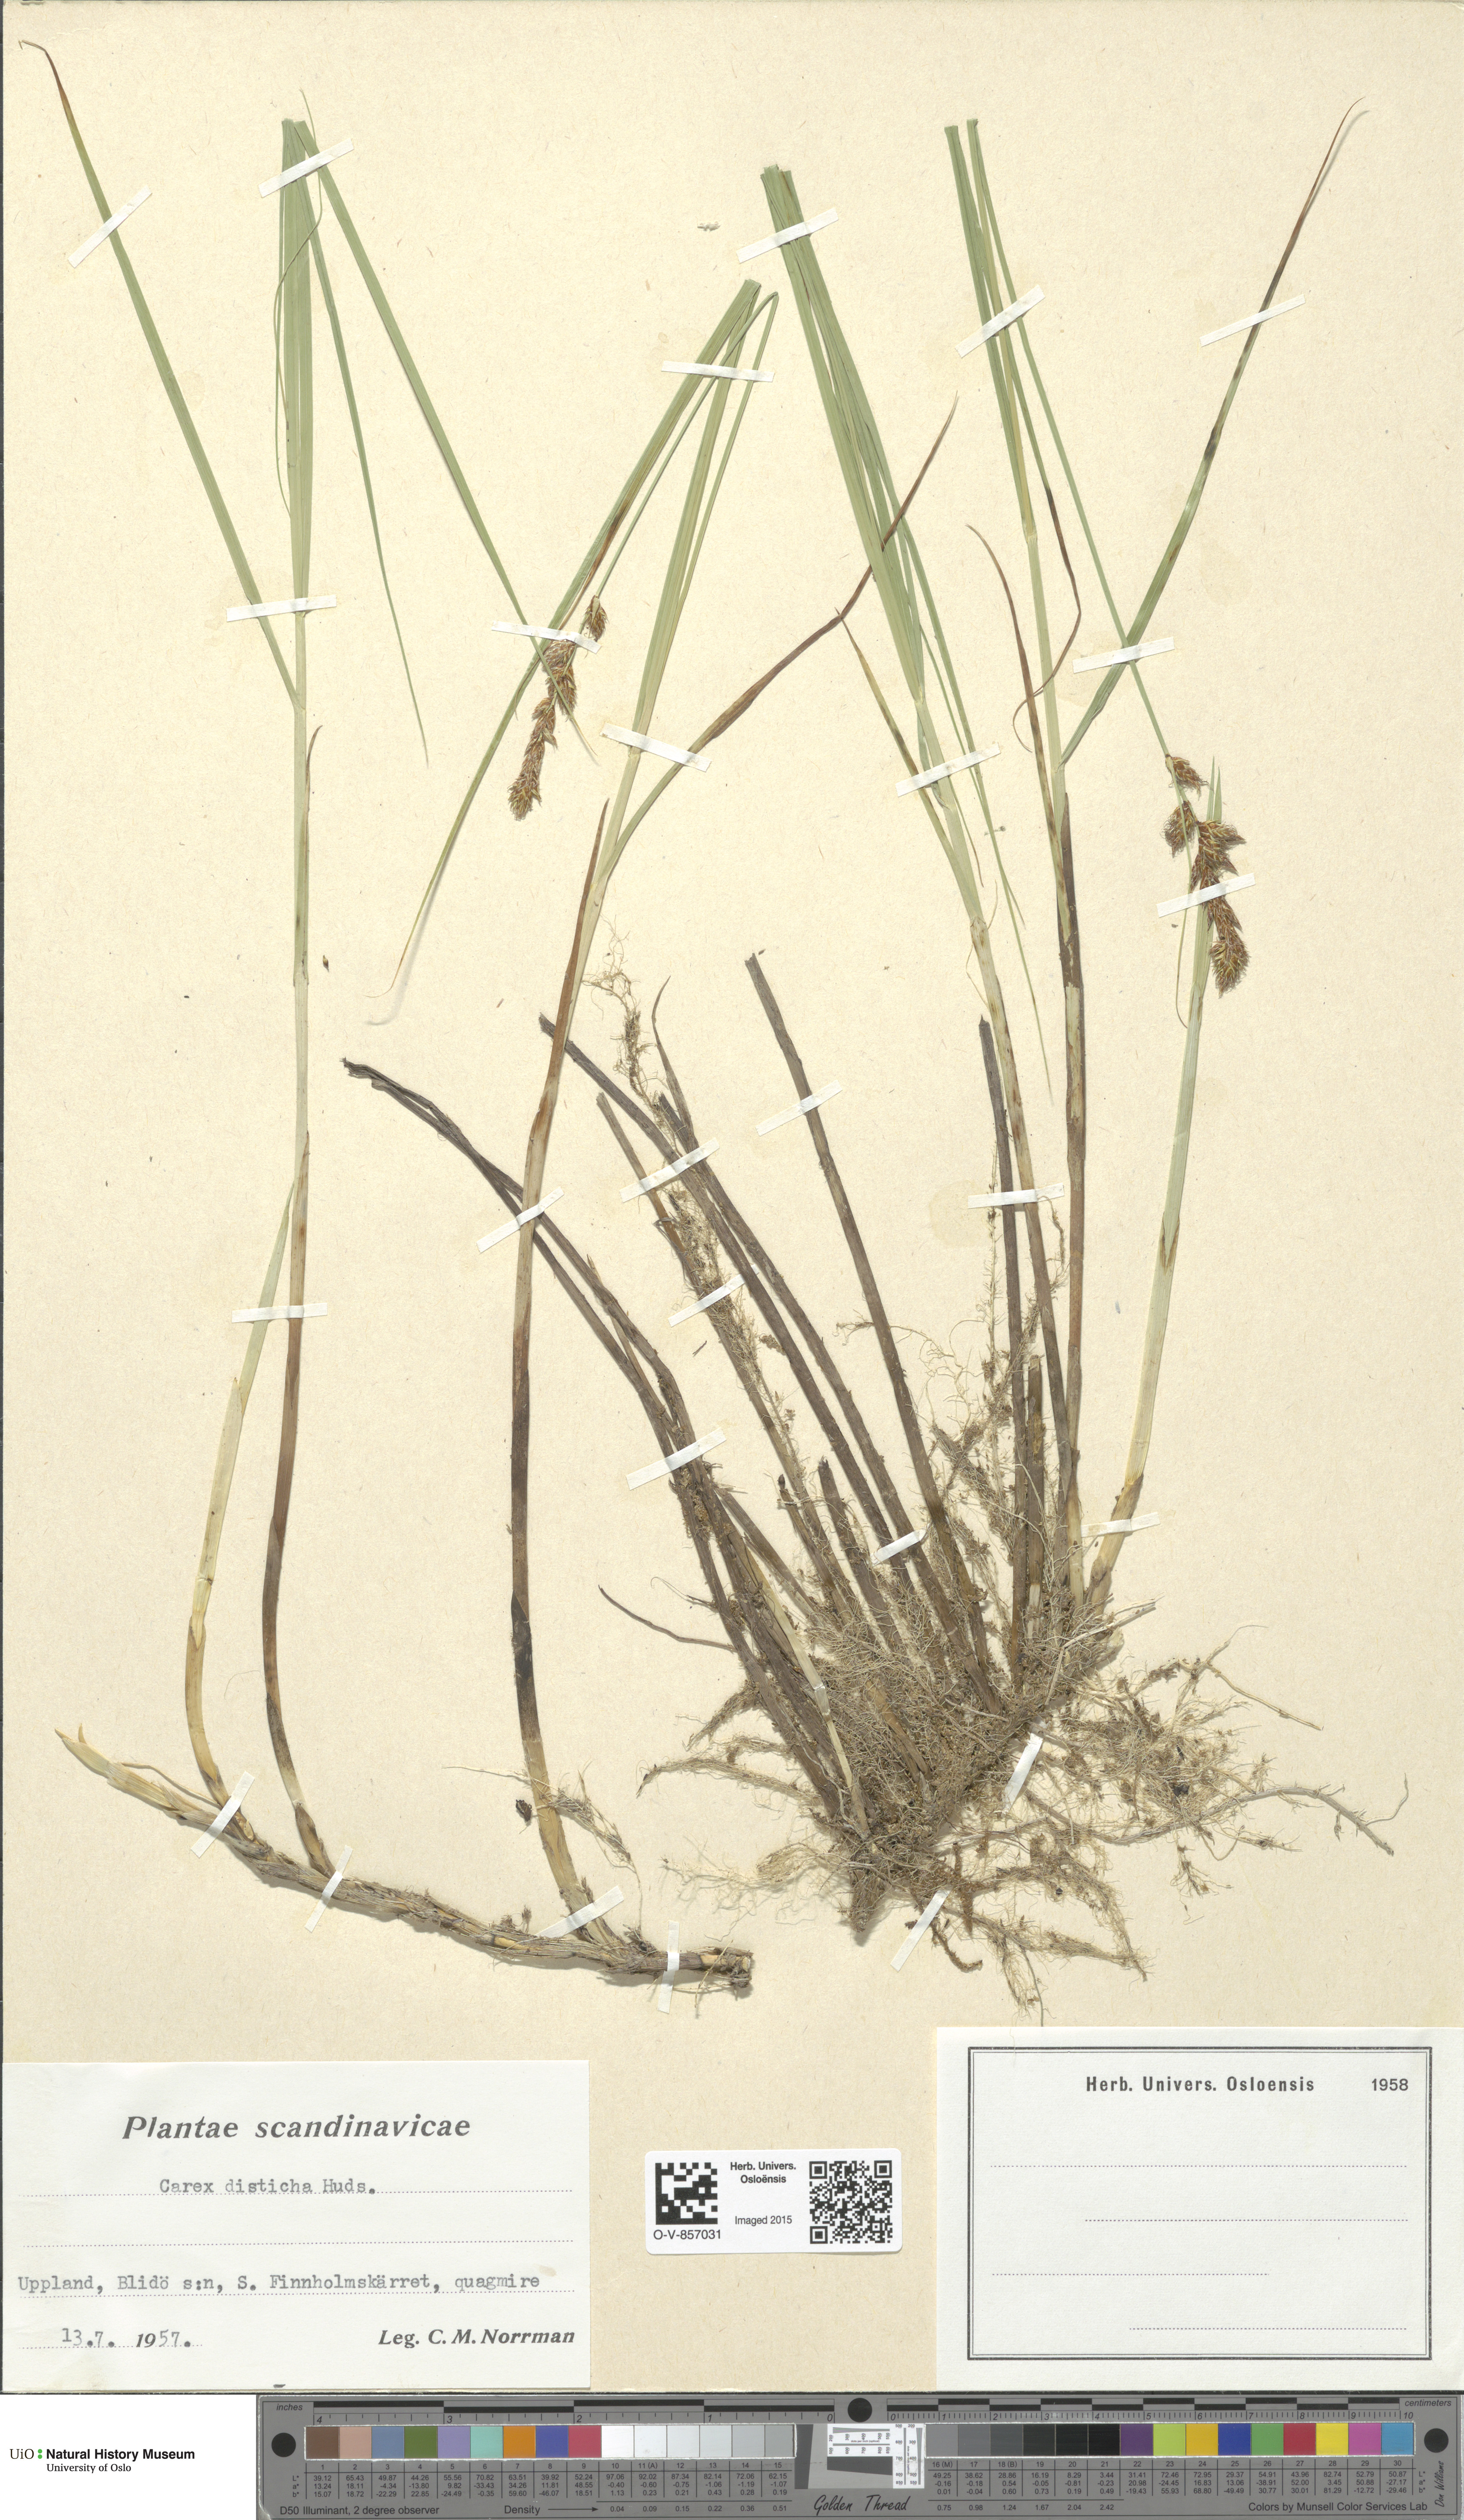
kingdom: Plantae
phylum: Tracheophyta
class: Liliopsida
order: Poales
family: Cyperaceae
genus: Carex
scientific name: Carex disticha
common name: Brown sedge
